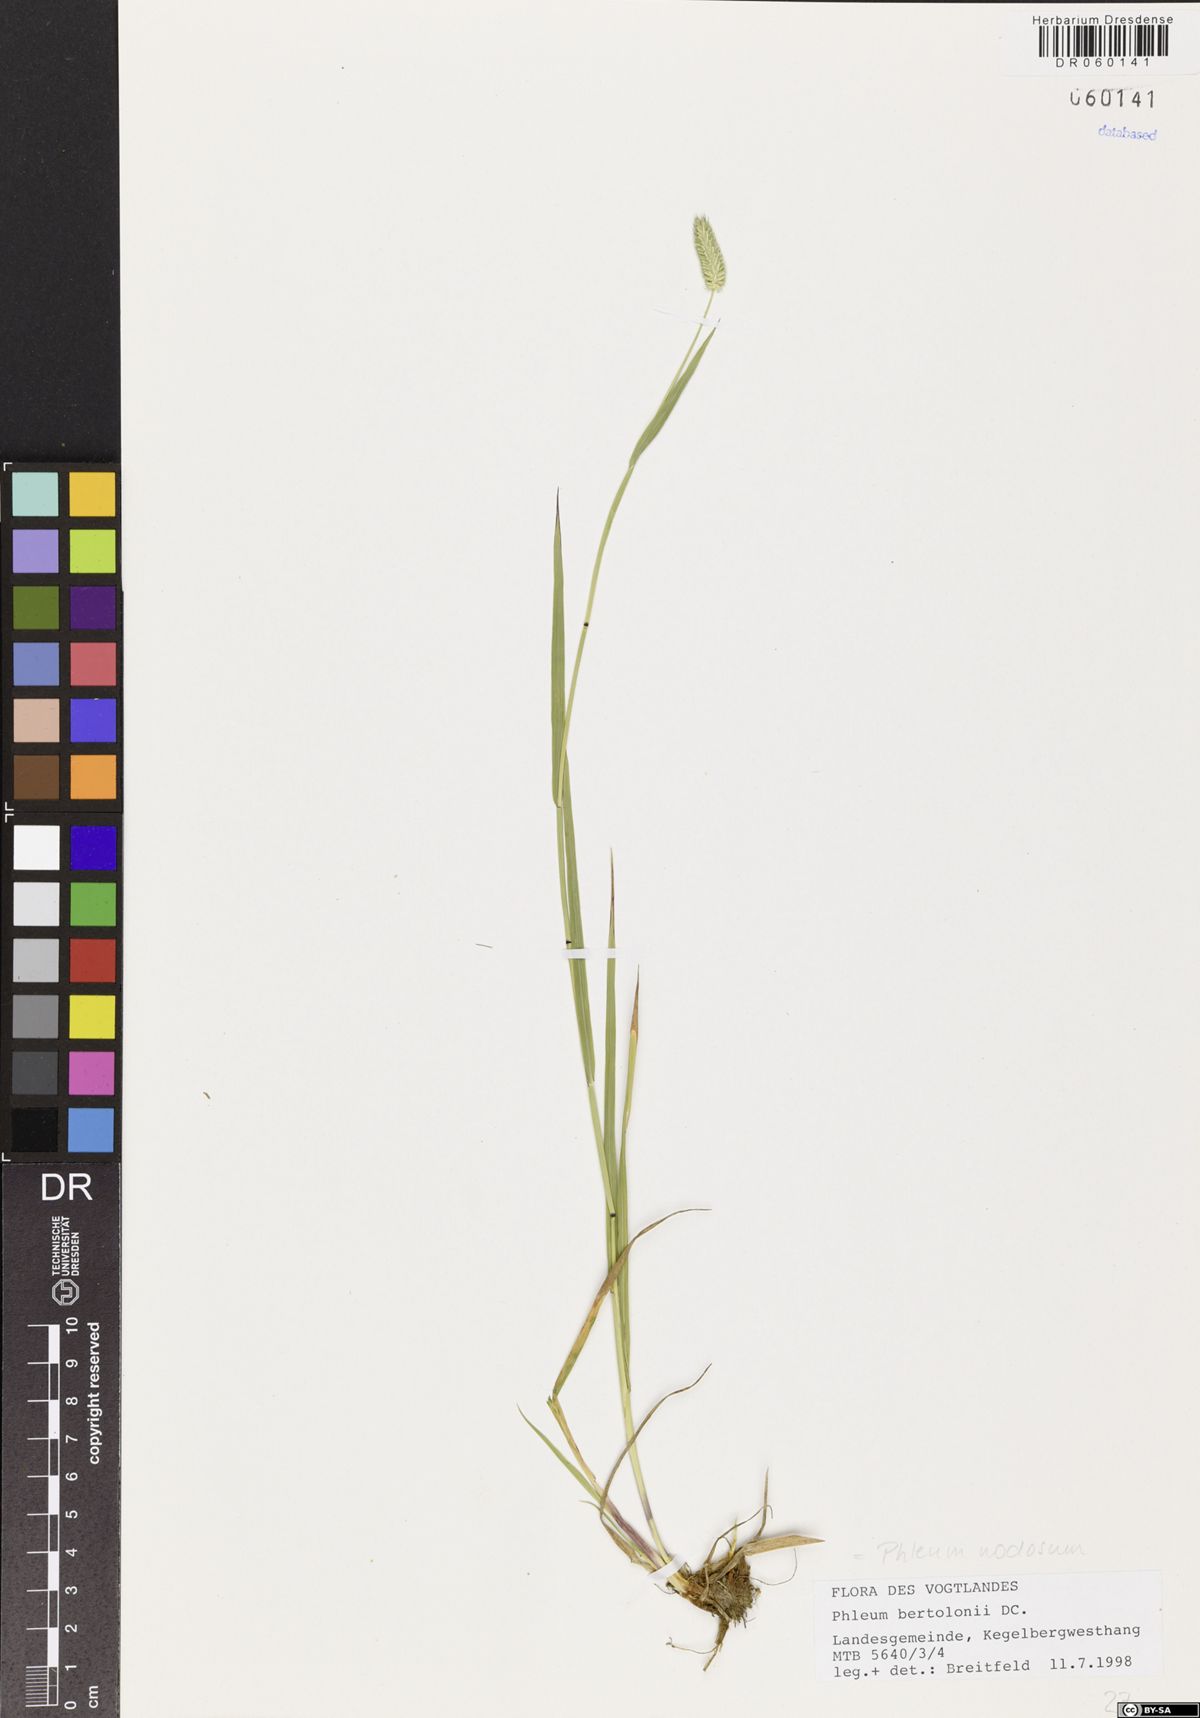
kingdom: Plantae
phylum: Tracheophyta
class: Liliopsida
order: Poales
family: Poaceae
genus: Phleum
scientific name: Phleum pratense
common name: Timothy grass
